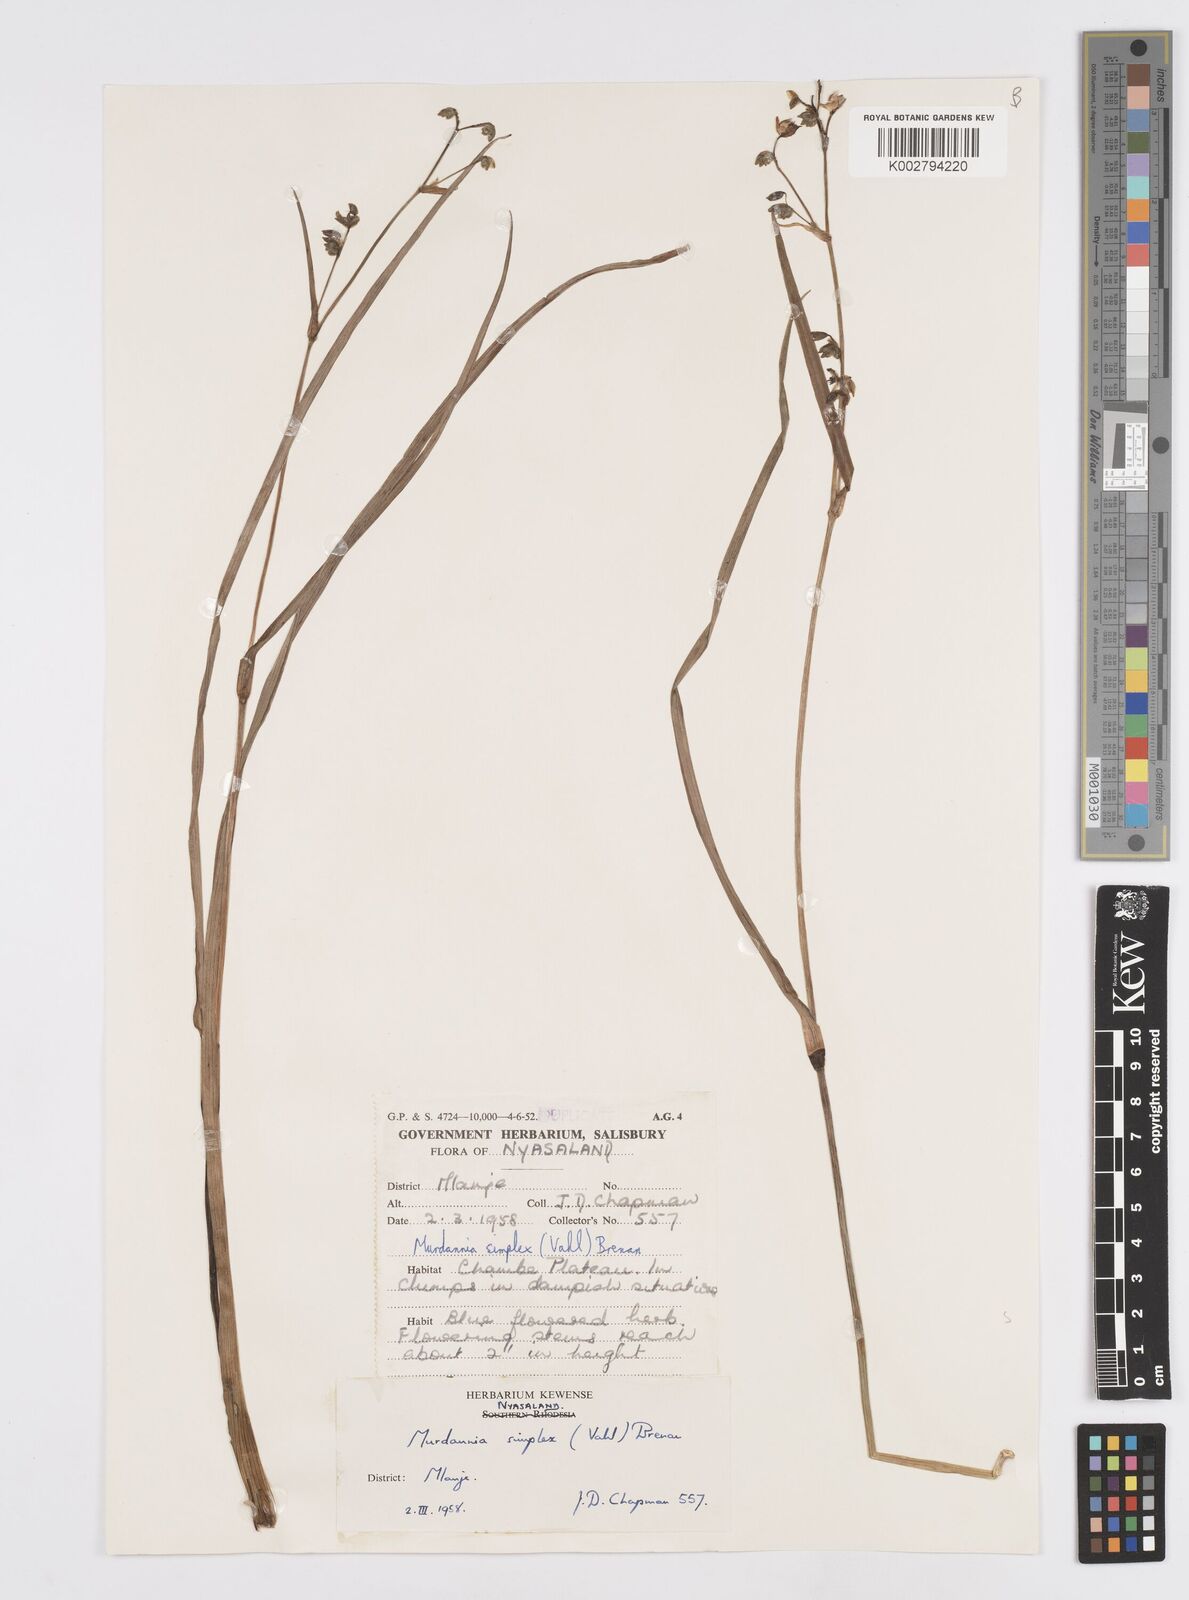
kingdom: Plantae
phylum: Tracheophyta
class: Liliopsida
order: Commelinales
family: Commelinaceae
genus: Murdannia
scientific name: Murdannia simplex
